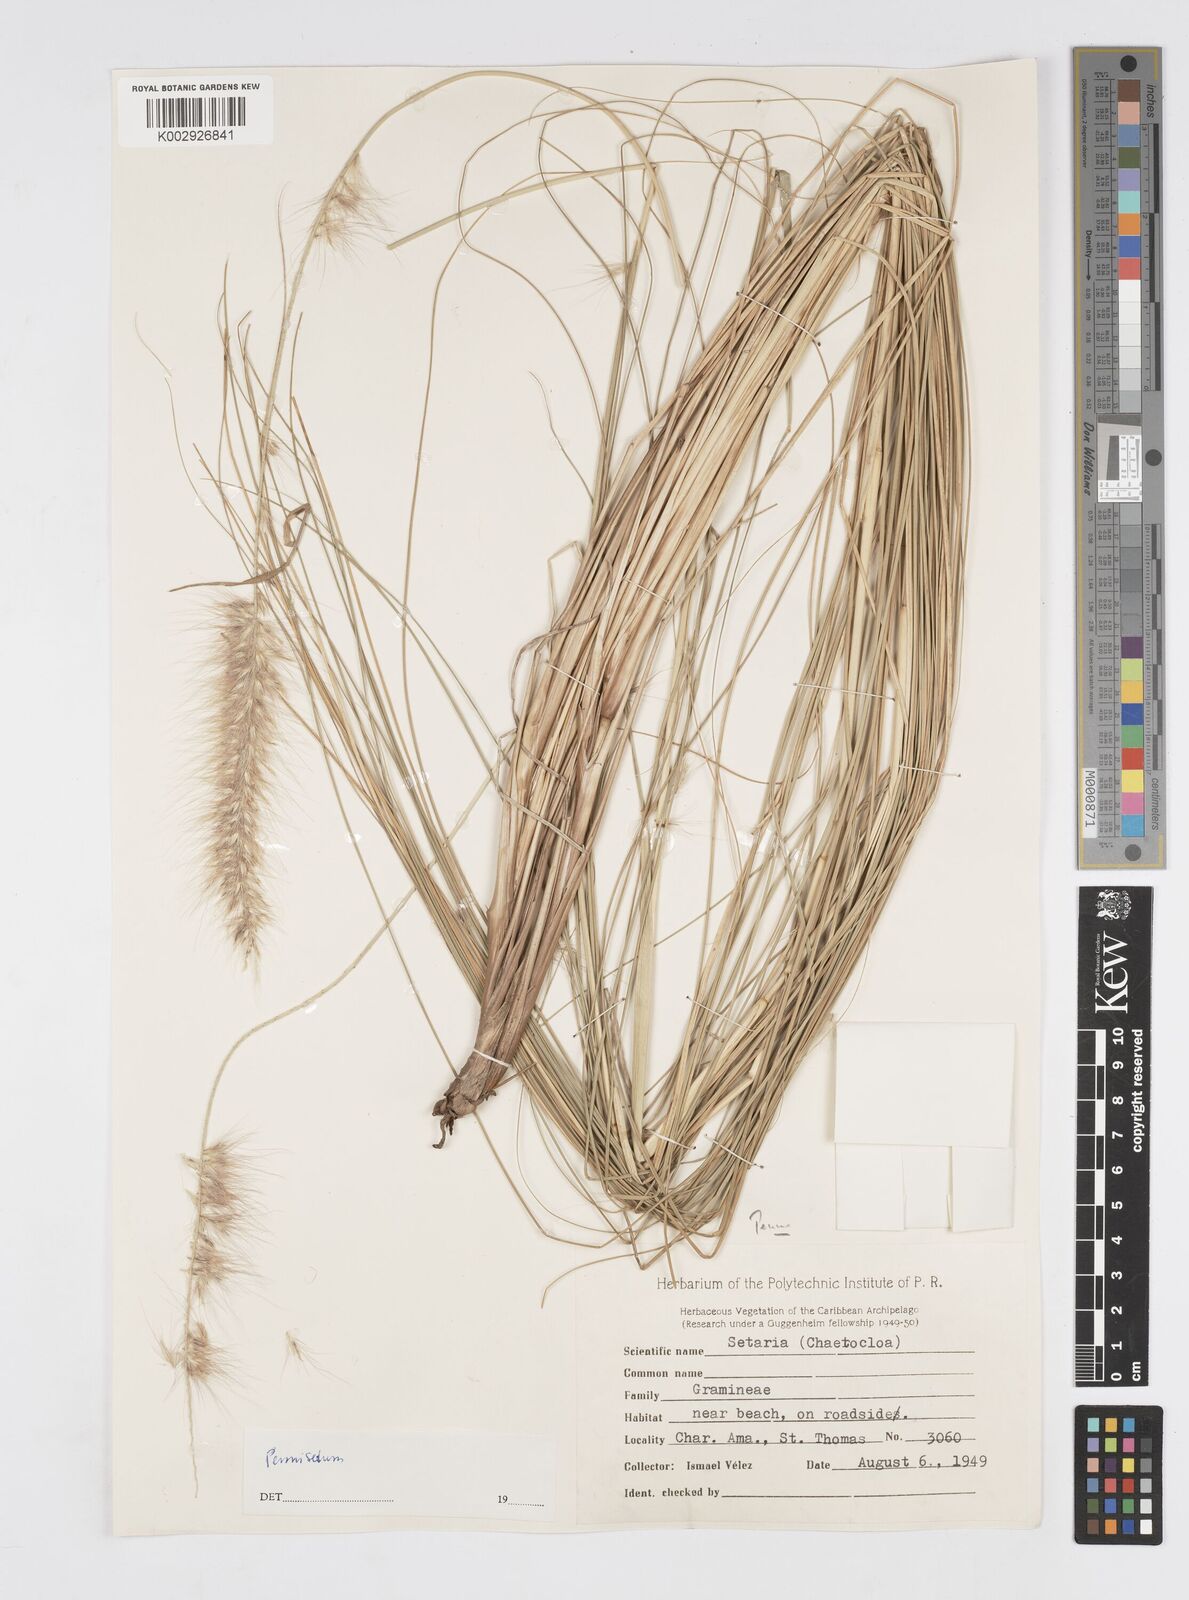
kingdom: Plantae
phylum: Tracheophyta
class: Liliopsida
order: Poales
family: Poaceae
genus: Cenchrus
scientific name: Cenchrus Pennisetum spec
